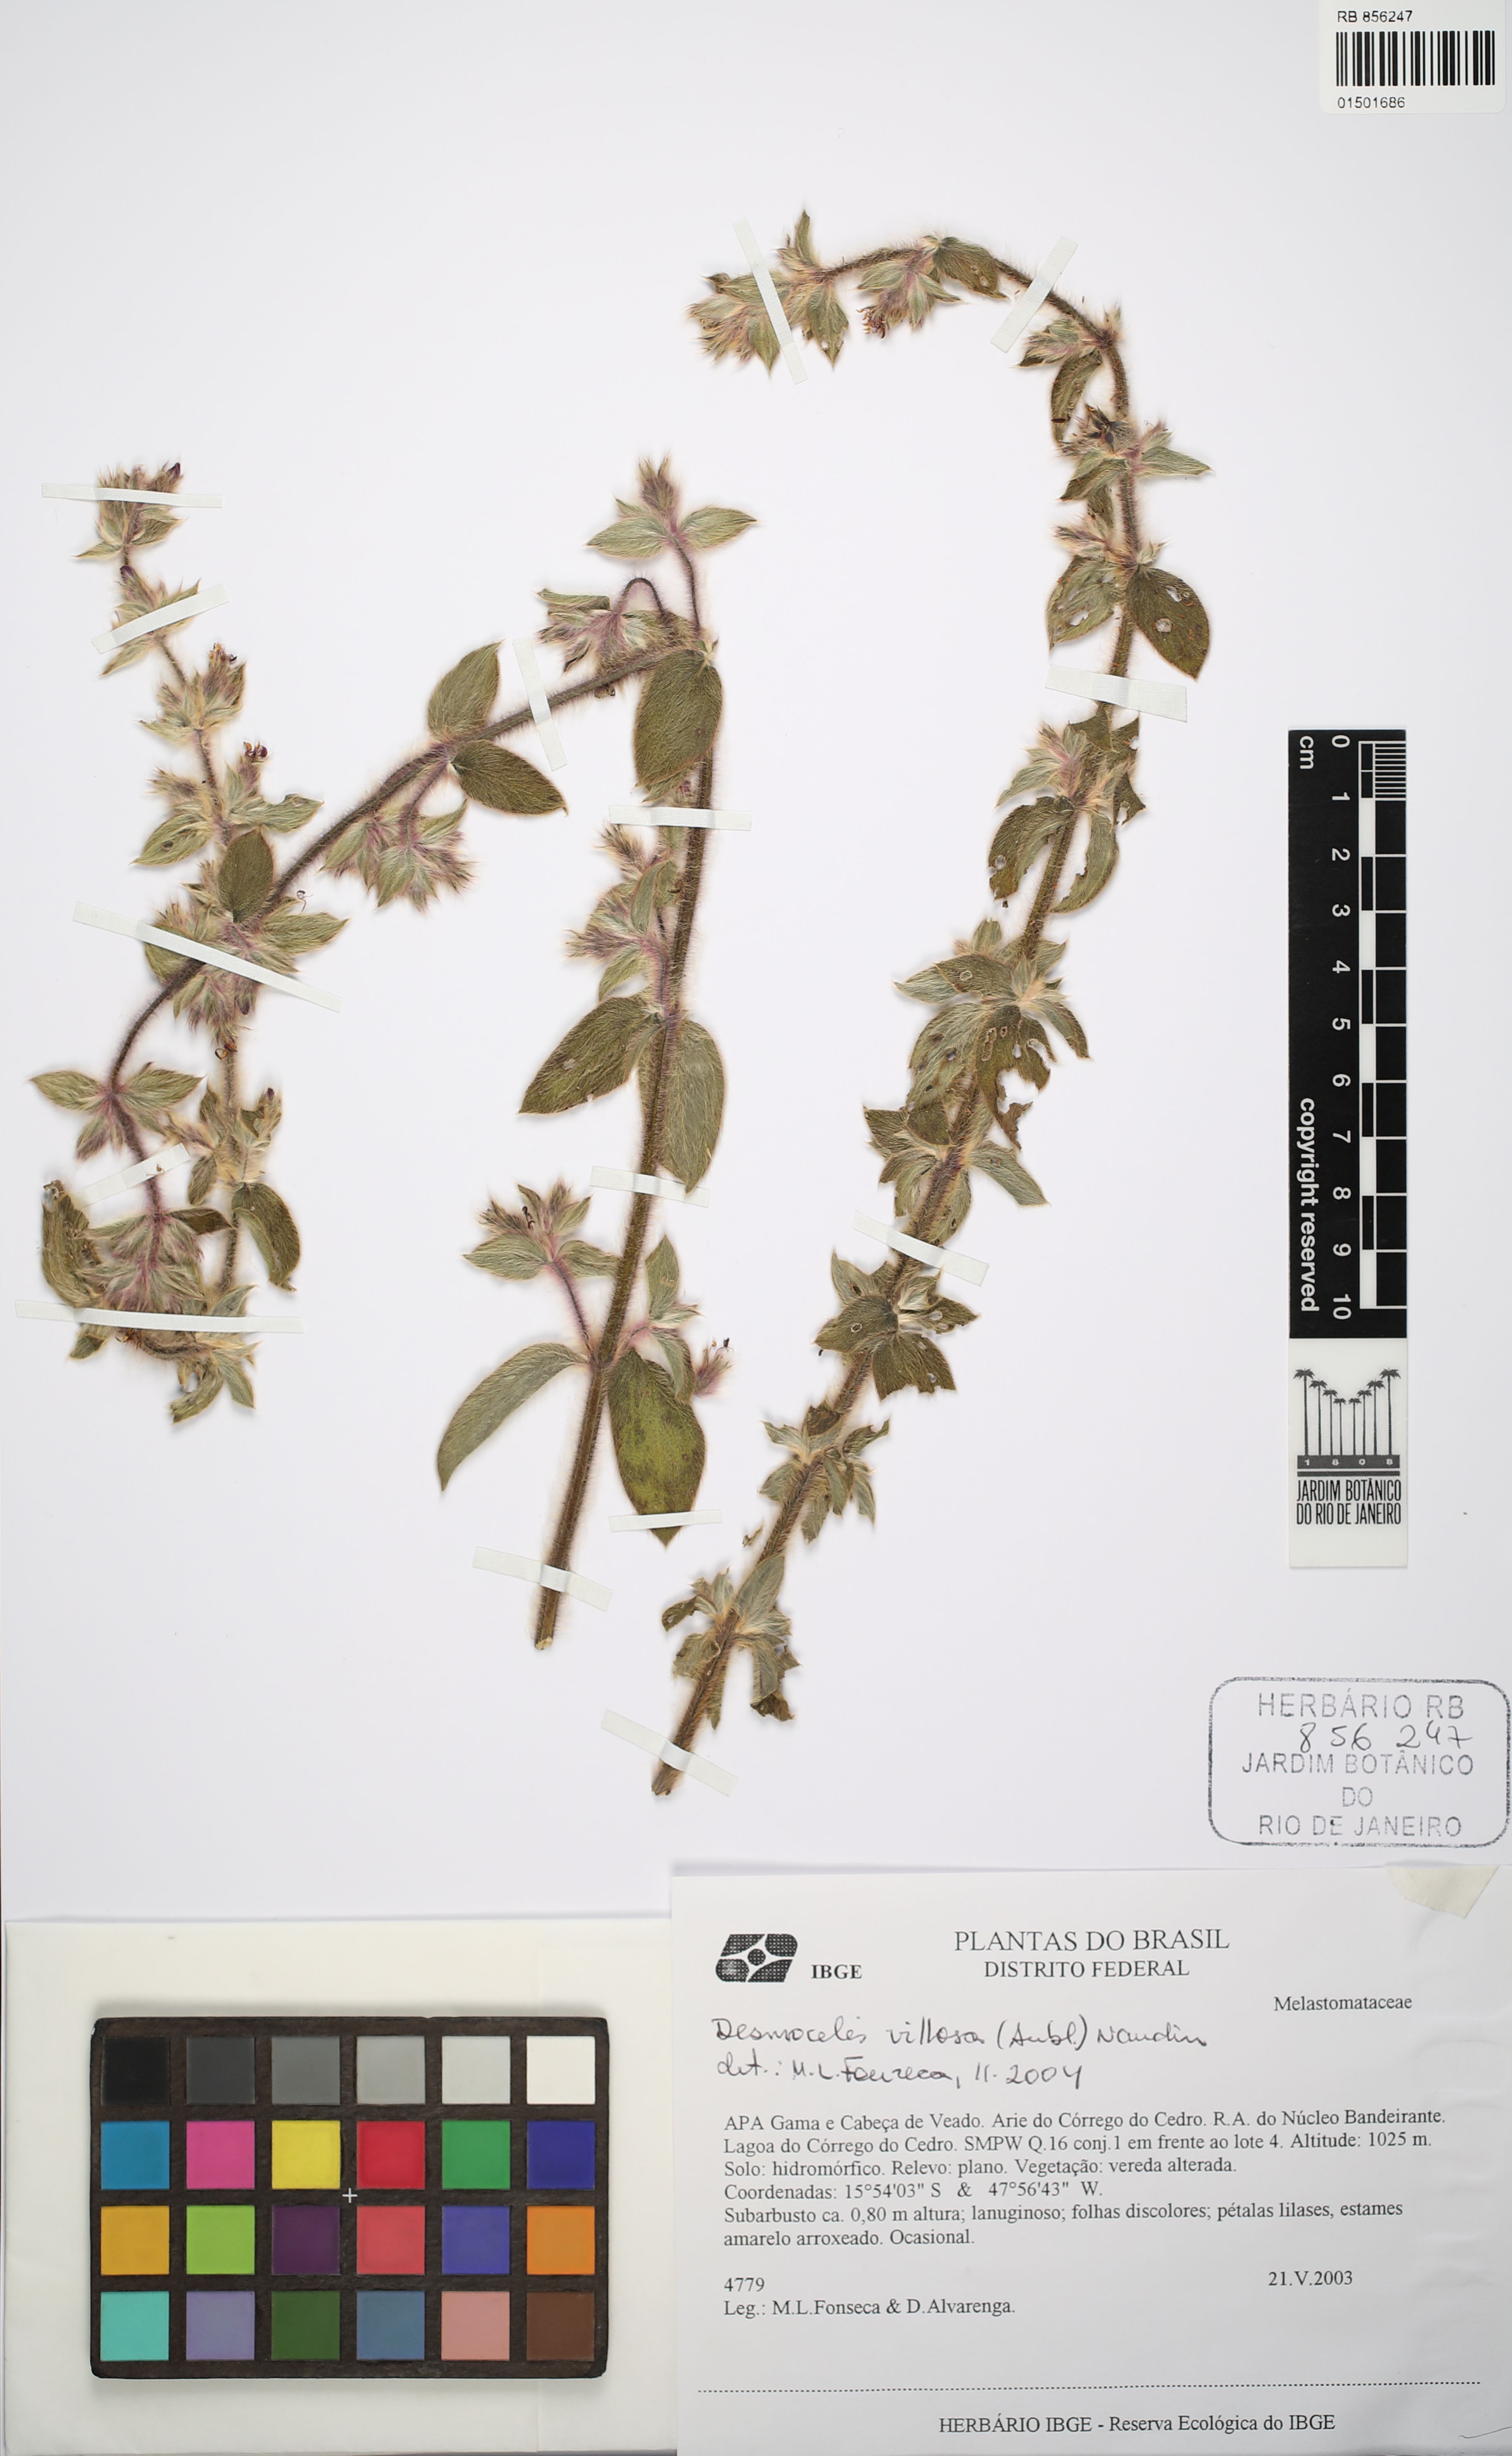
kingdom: Plantae
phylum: Tracheophyta
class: Magnoliopsida
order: Myrtales
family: Melastomataceae
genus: Desmoscelis
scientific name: Desmoscelis villosa
